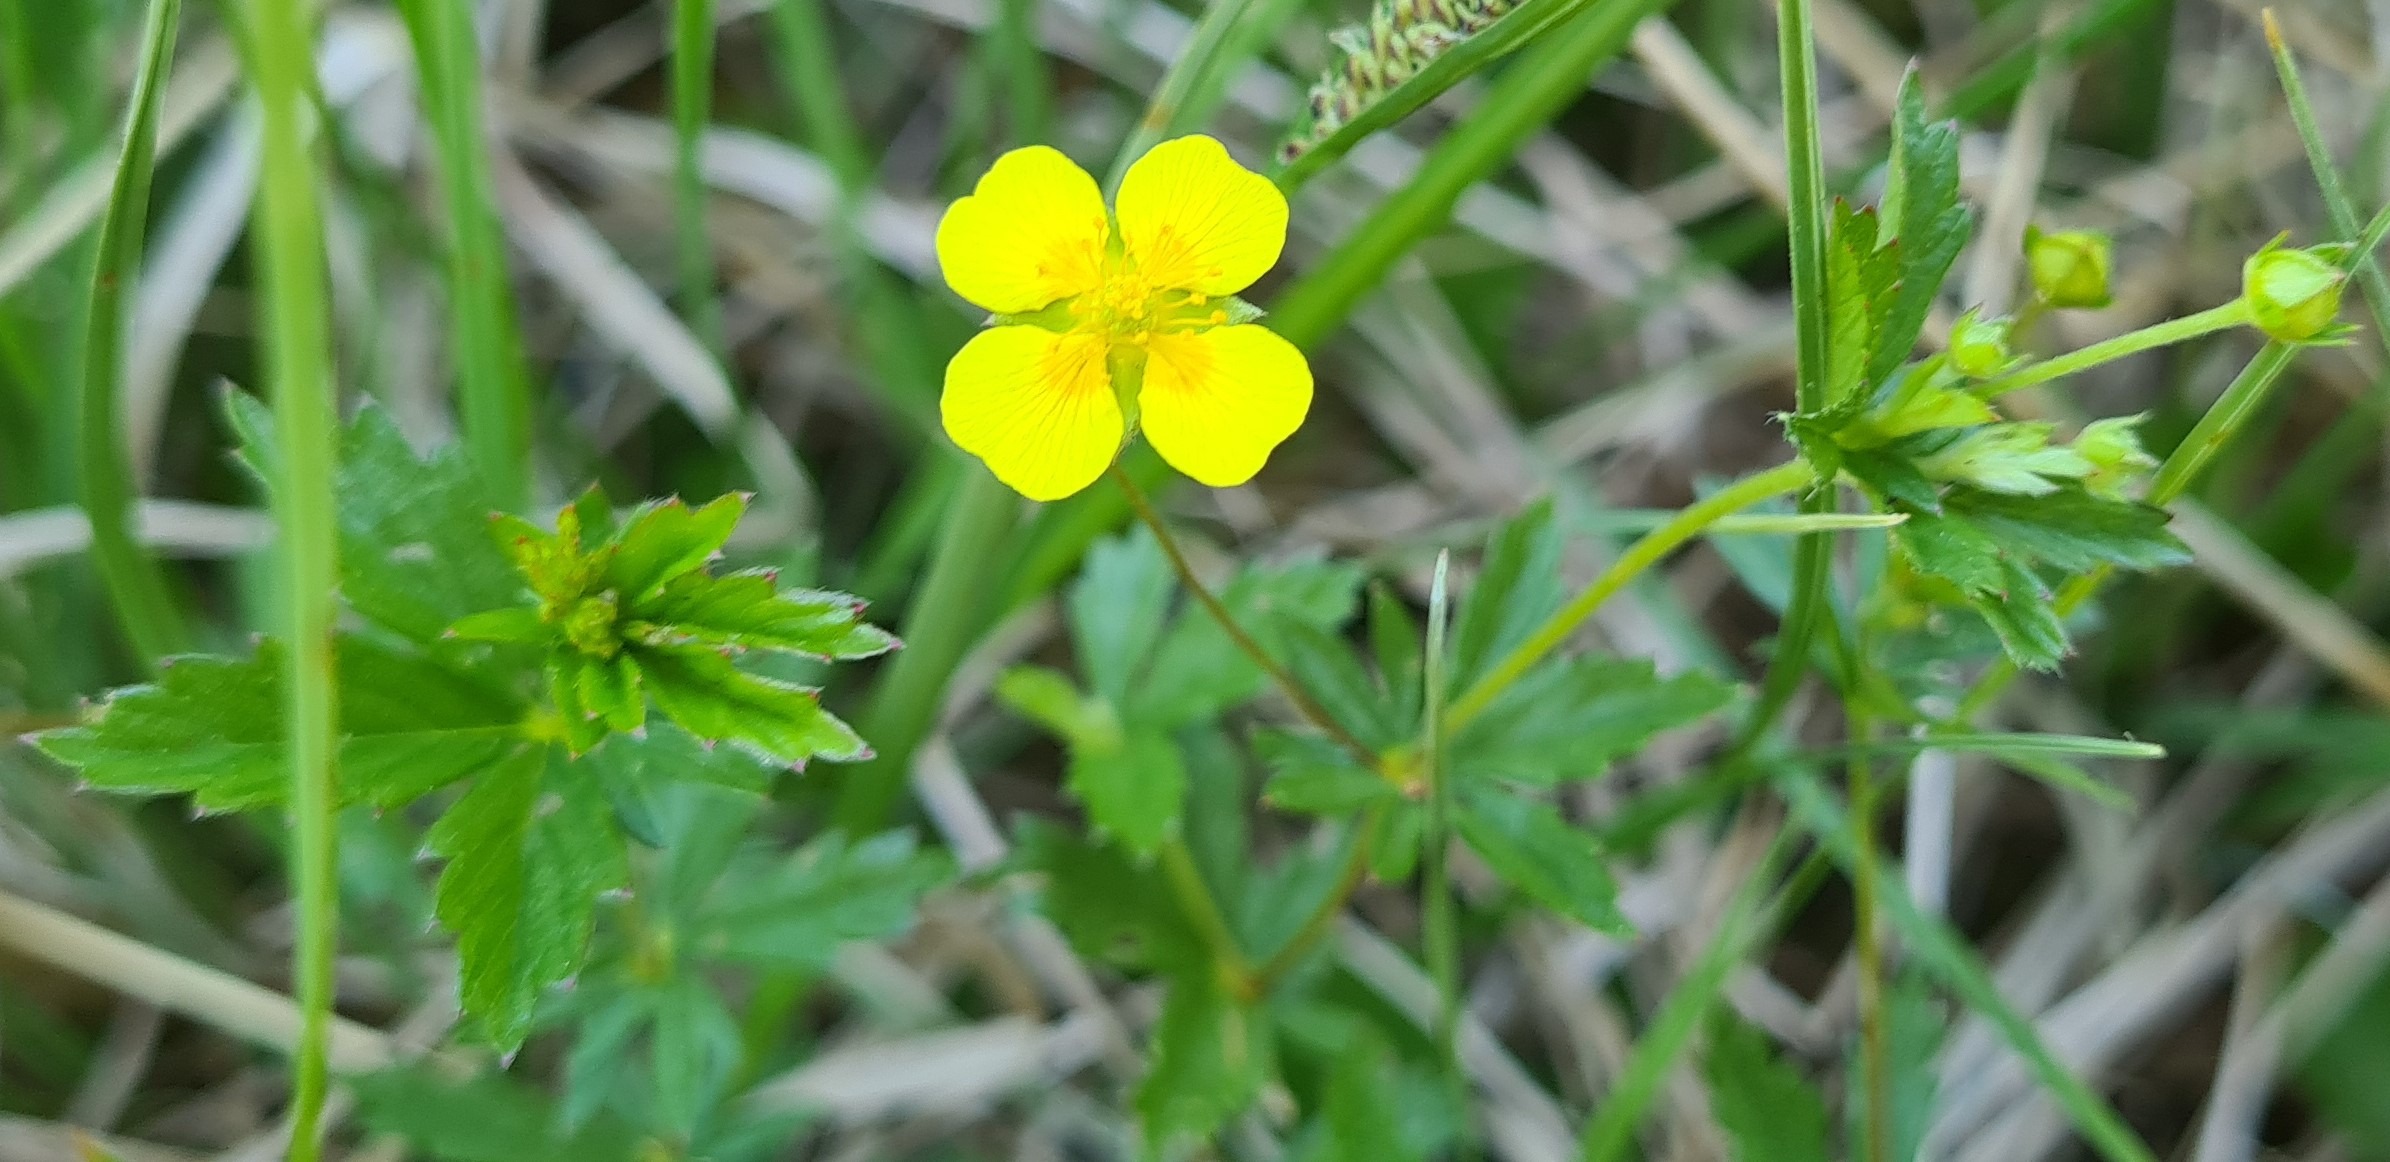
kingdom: Plantae
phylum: Tracheophyta
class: Magnoliopsida
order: Rosales
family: Rosaceae
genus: Potentilla
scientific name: Potentilla erecta
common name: Tormentil
